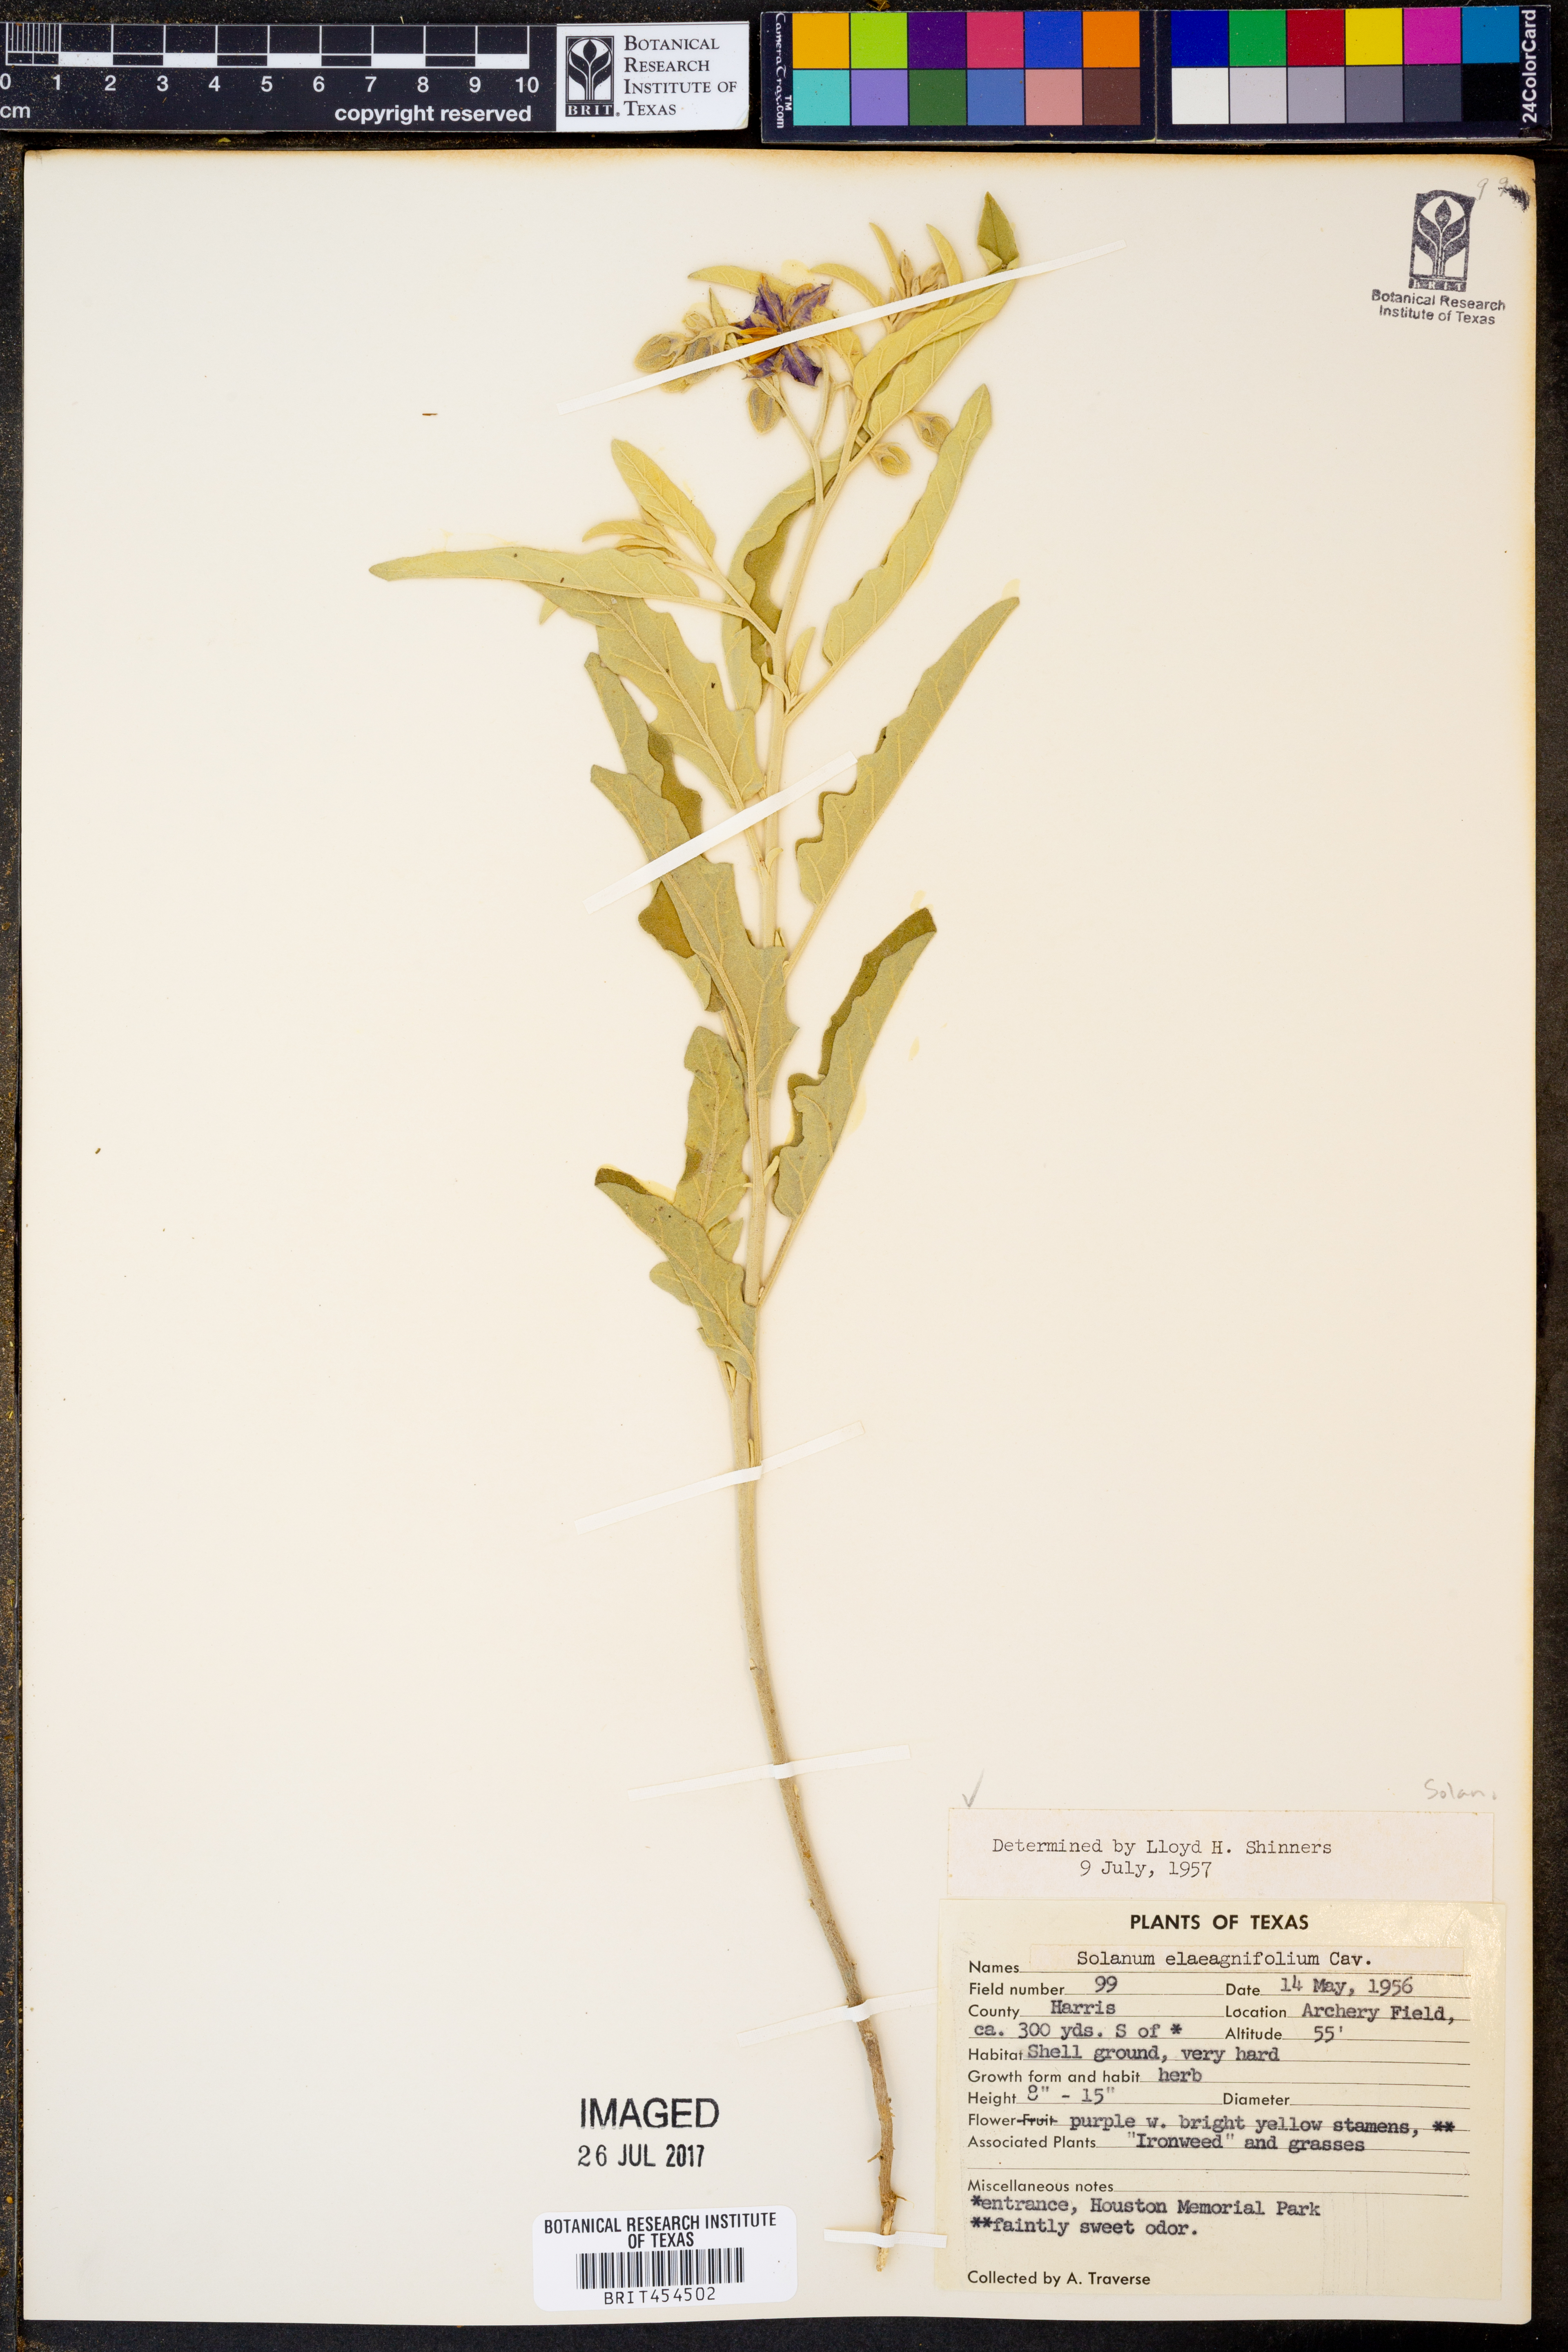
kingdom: Plantae
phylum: Tracheophyta
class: Magnoliopsida
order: Solanales
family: Solanaceae
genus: Solanum
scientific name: Solanum elaeagnifolium
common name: Silverleaf nightshade
